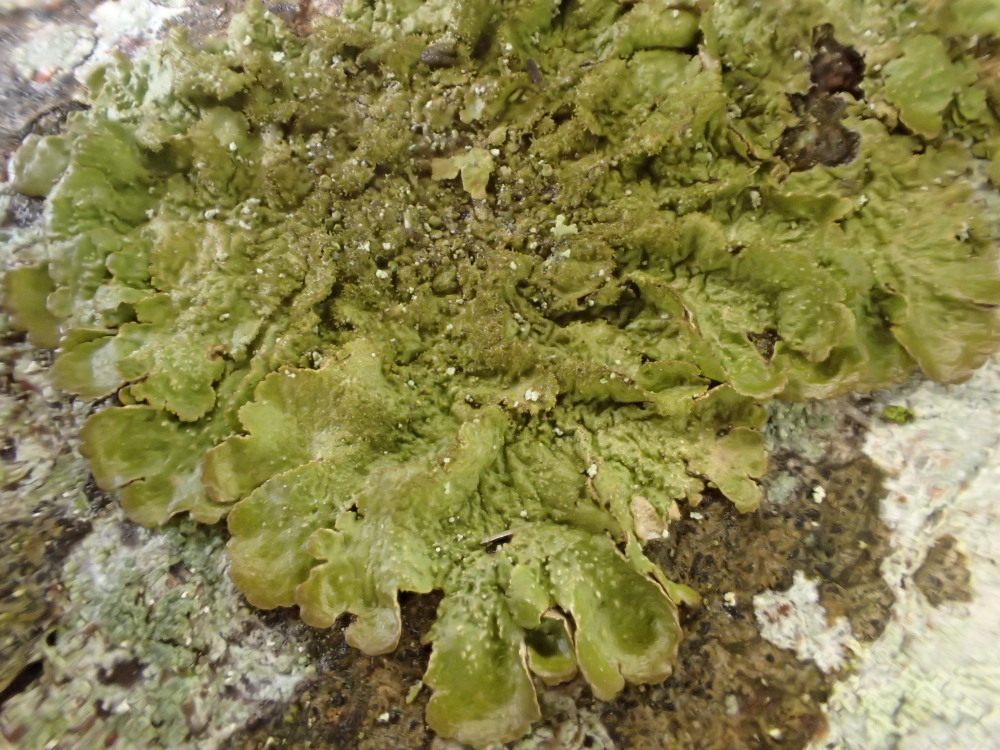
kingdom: Fungi
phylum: Ascomycota
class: Lecanoromycetes
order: Lecanorales
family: Parmeliaceae
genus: Melanelixia
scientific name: Melanelixia glabratula
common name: glinsende skållav
